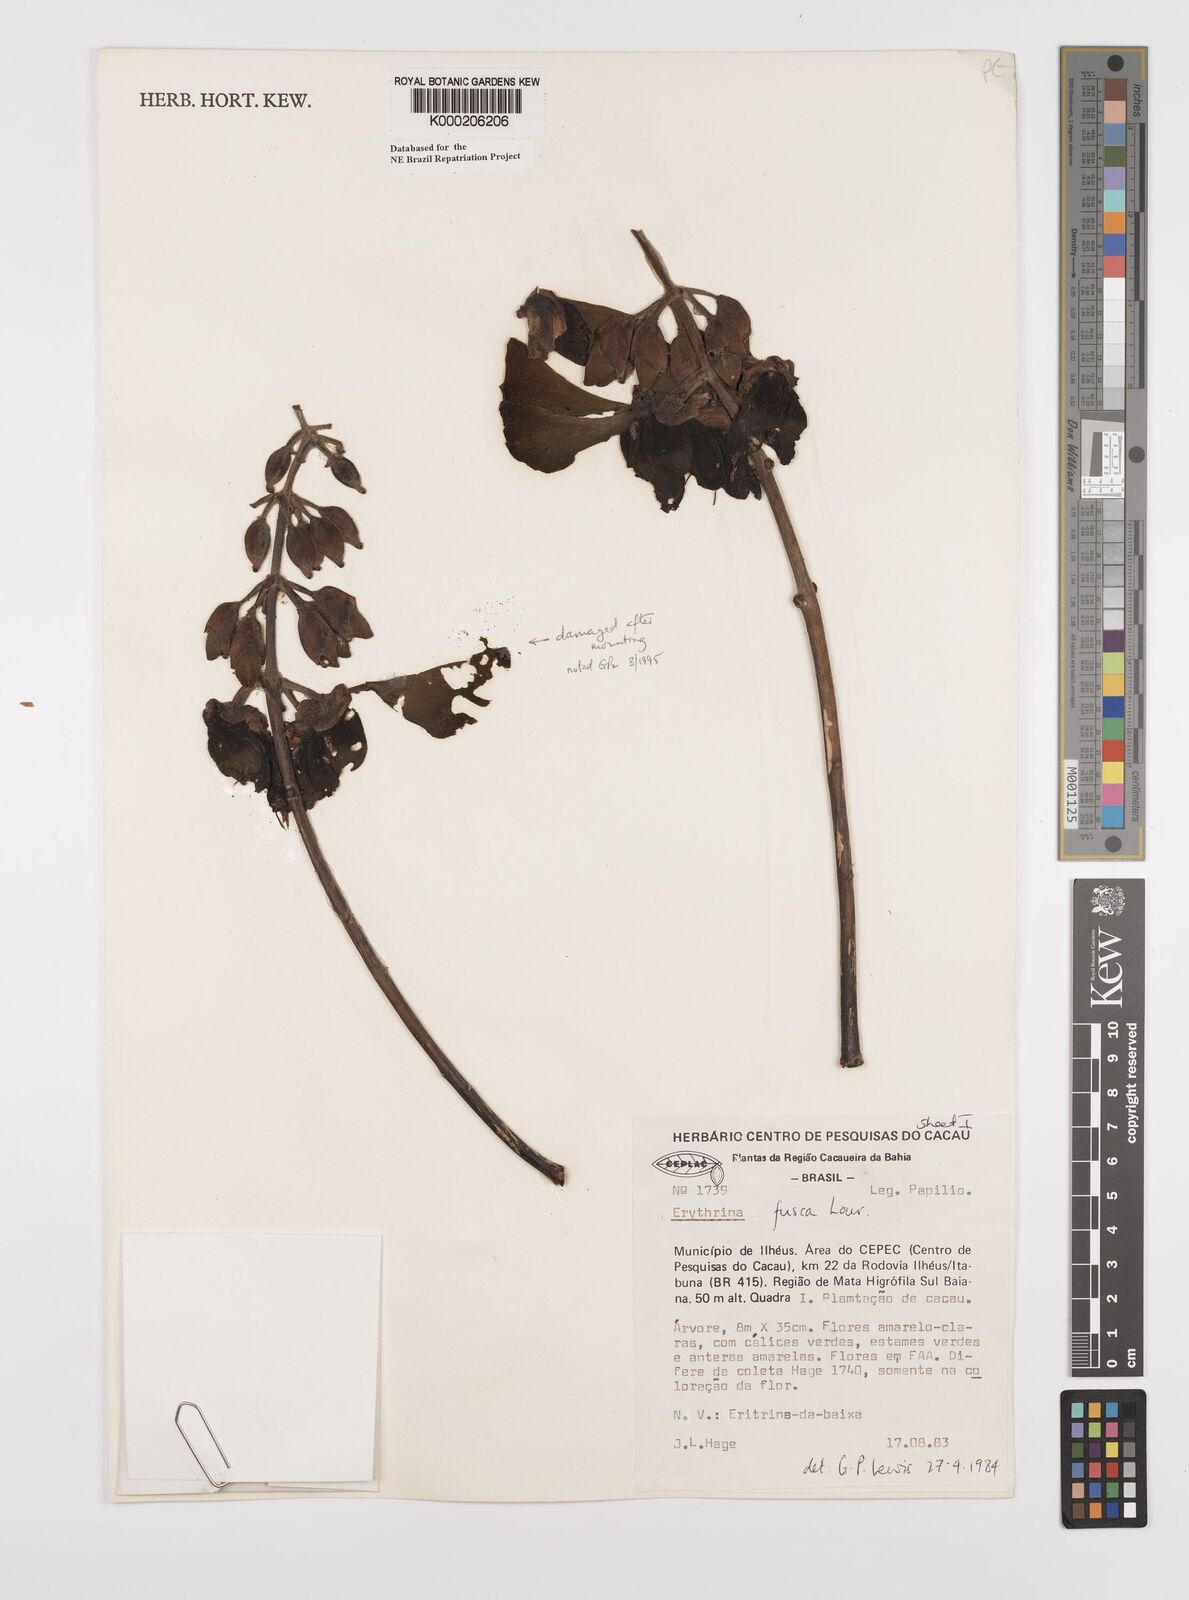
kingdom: Plantae
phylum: Tracheophyta
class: Magnoliopsida
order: Fabales
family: Fabaceae
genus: Erythrina
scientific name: Erythrina fusca
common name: Coral-bean
